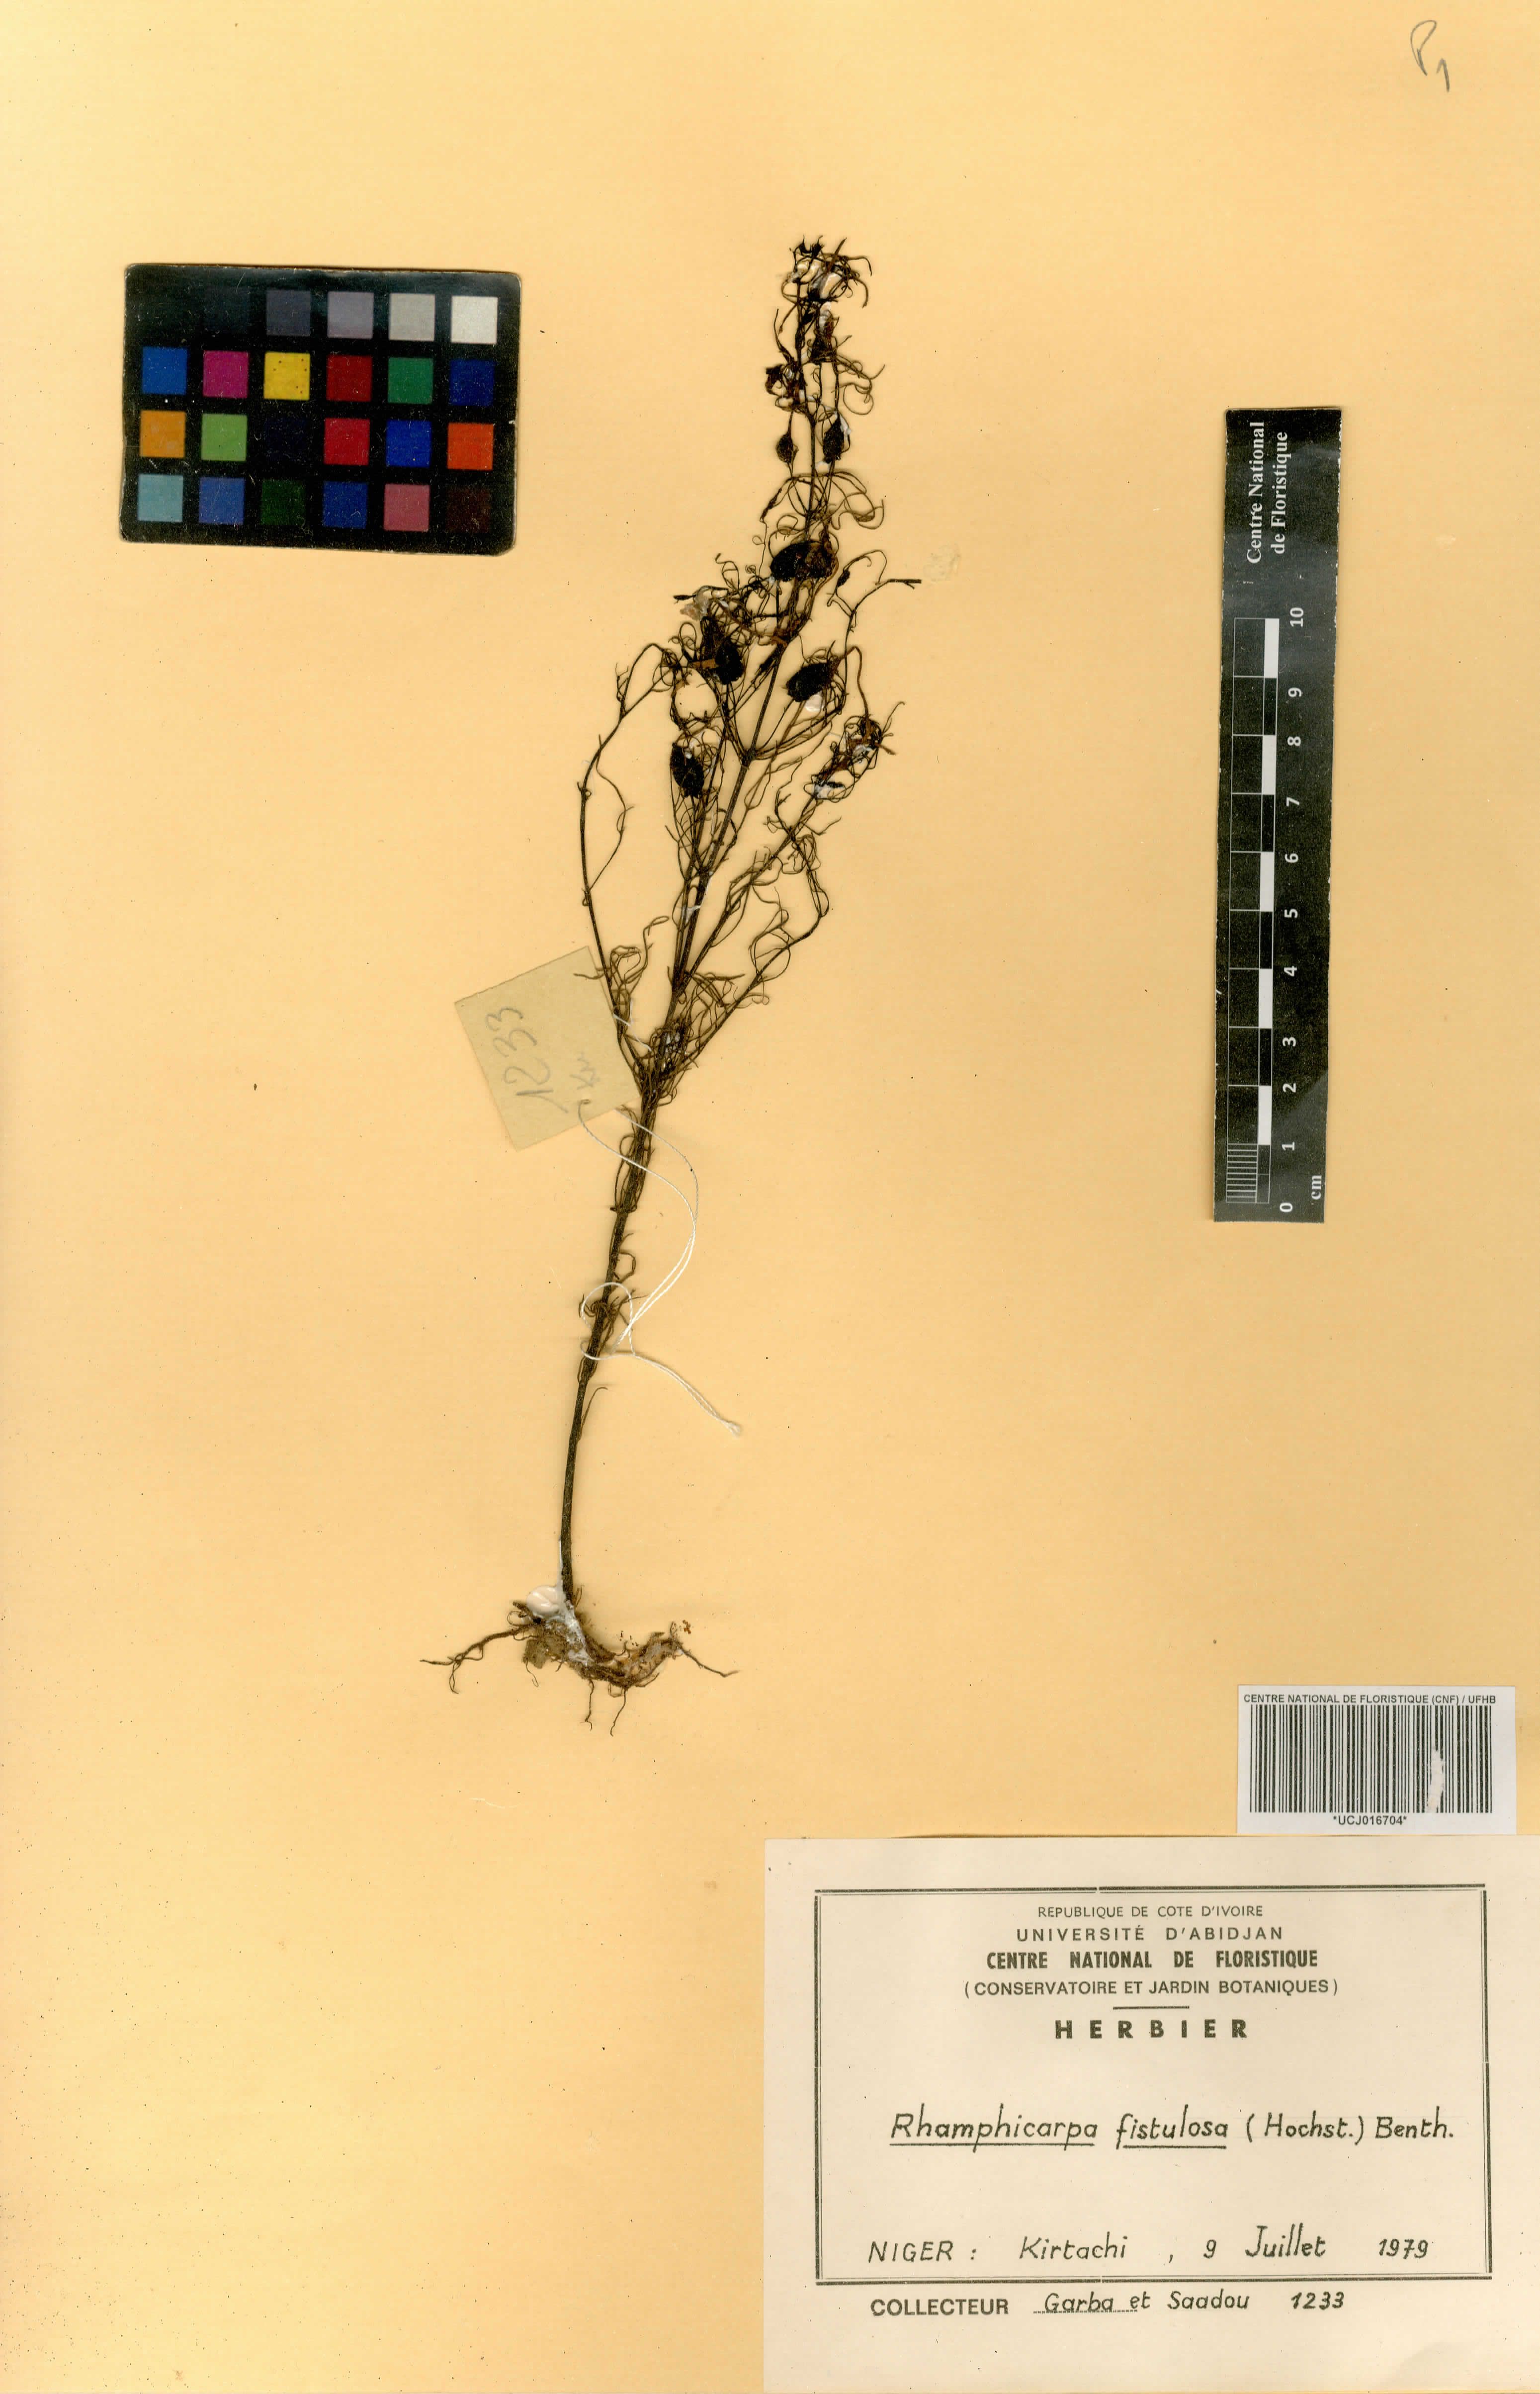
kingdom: Plantae
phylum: Tracheophyta
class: Magnoliopsida
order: Lamiales
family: Orobanchaceae
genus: Rhamphicarpa
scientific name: Rhamphicarpa fistulosa
